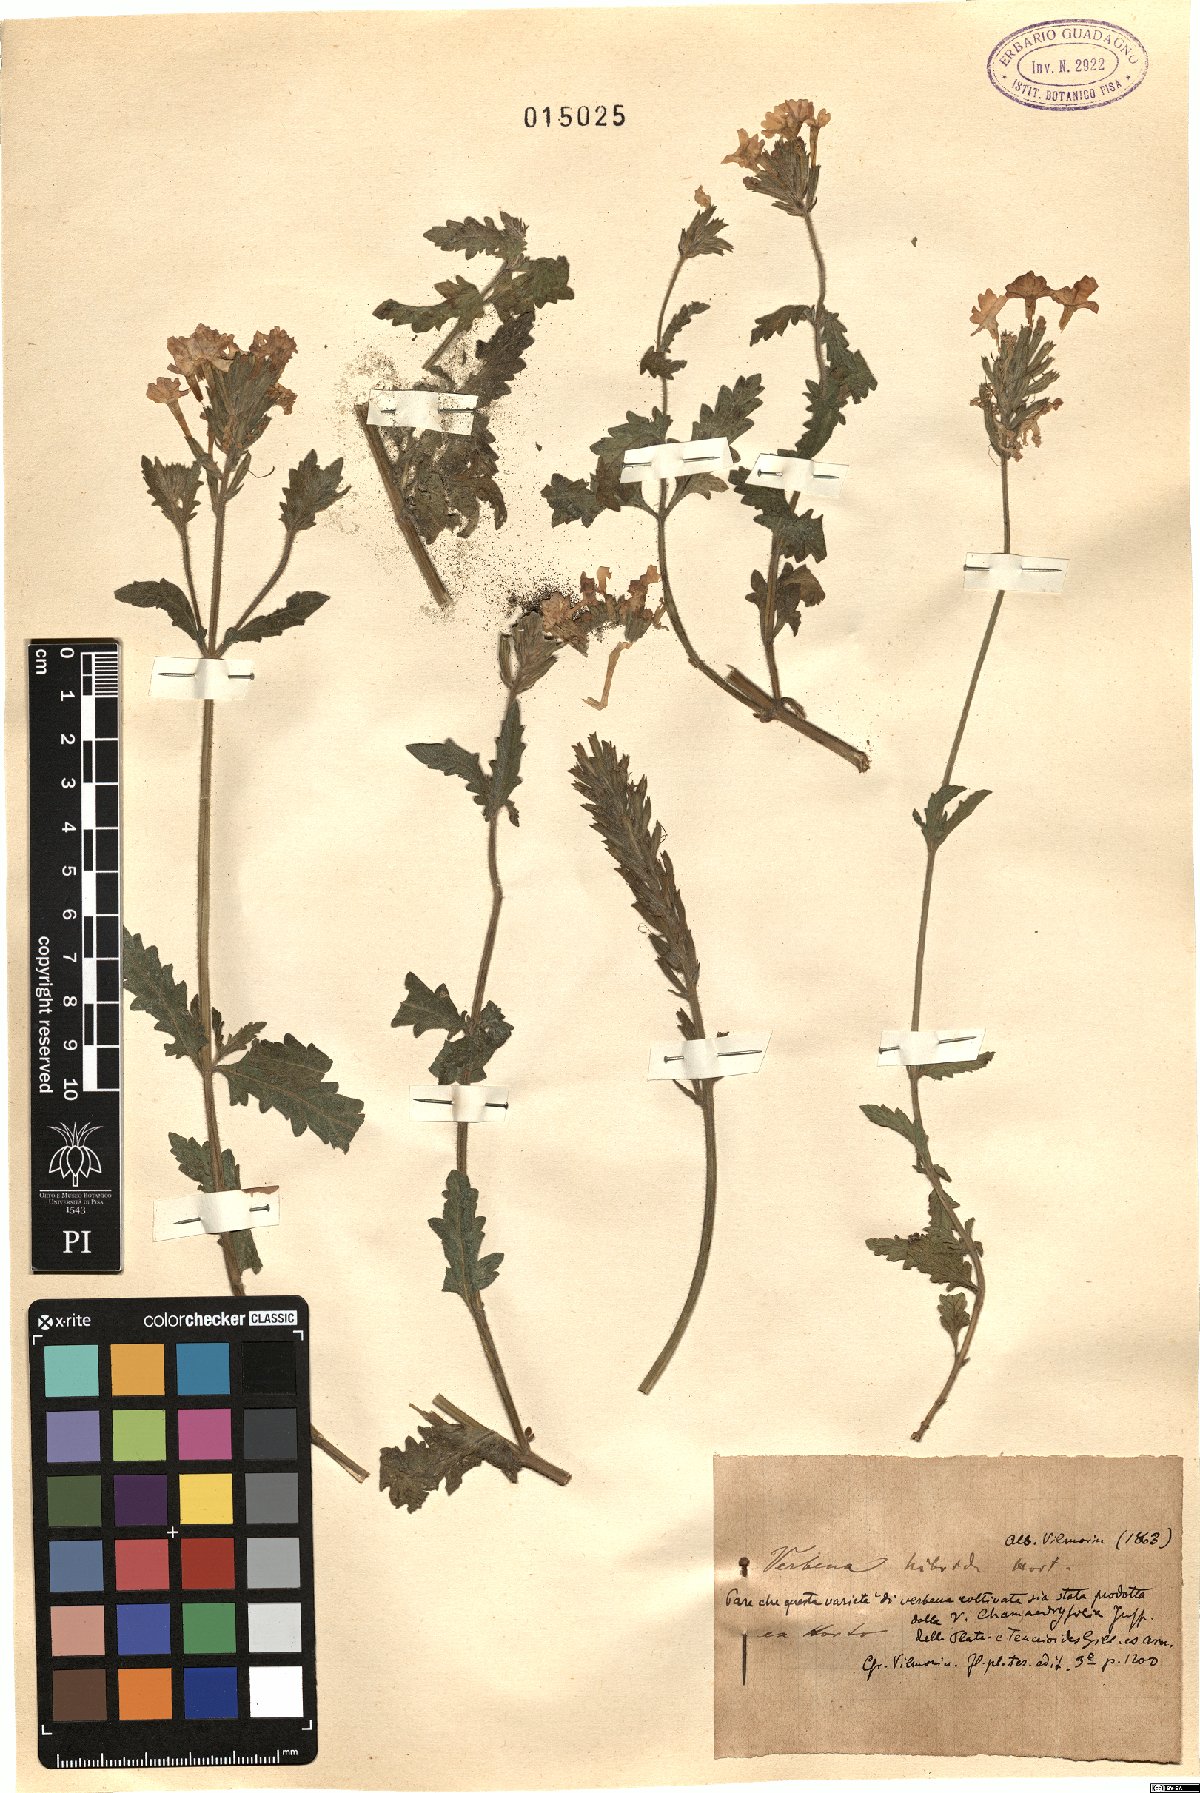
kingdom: Plantae
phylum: Tracheophyta
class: Magnoliopsida
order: Lamiales
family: Verbenaceae
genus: Verbena
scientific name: Verbena hybrida
